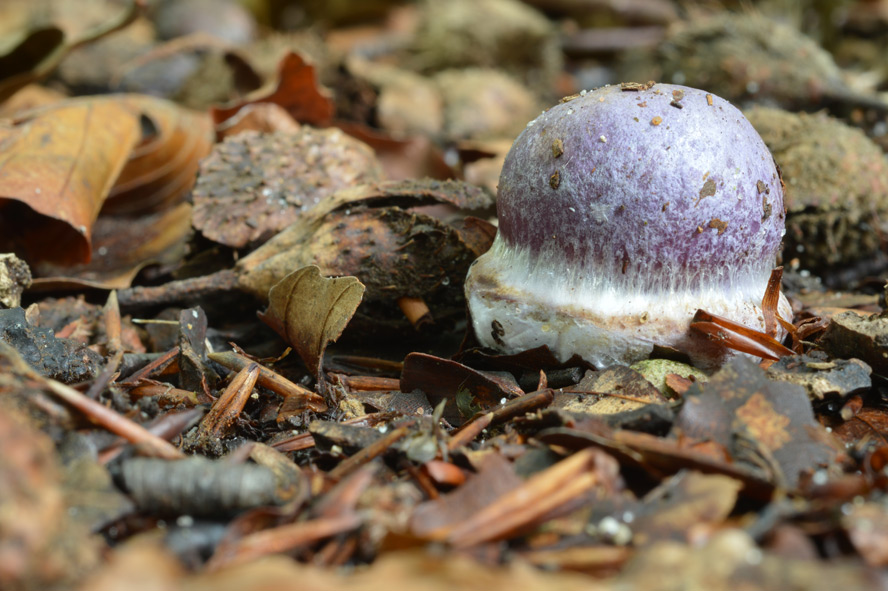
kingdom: Fungi
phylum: Basidiomycota
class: Agaricomycetes
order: Agaricales
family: Cortinariaceae
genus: Calonarius
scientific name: Calonarius sodagnitus
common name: violblå slørhat
